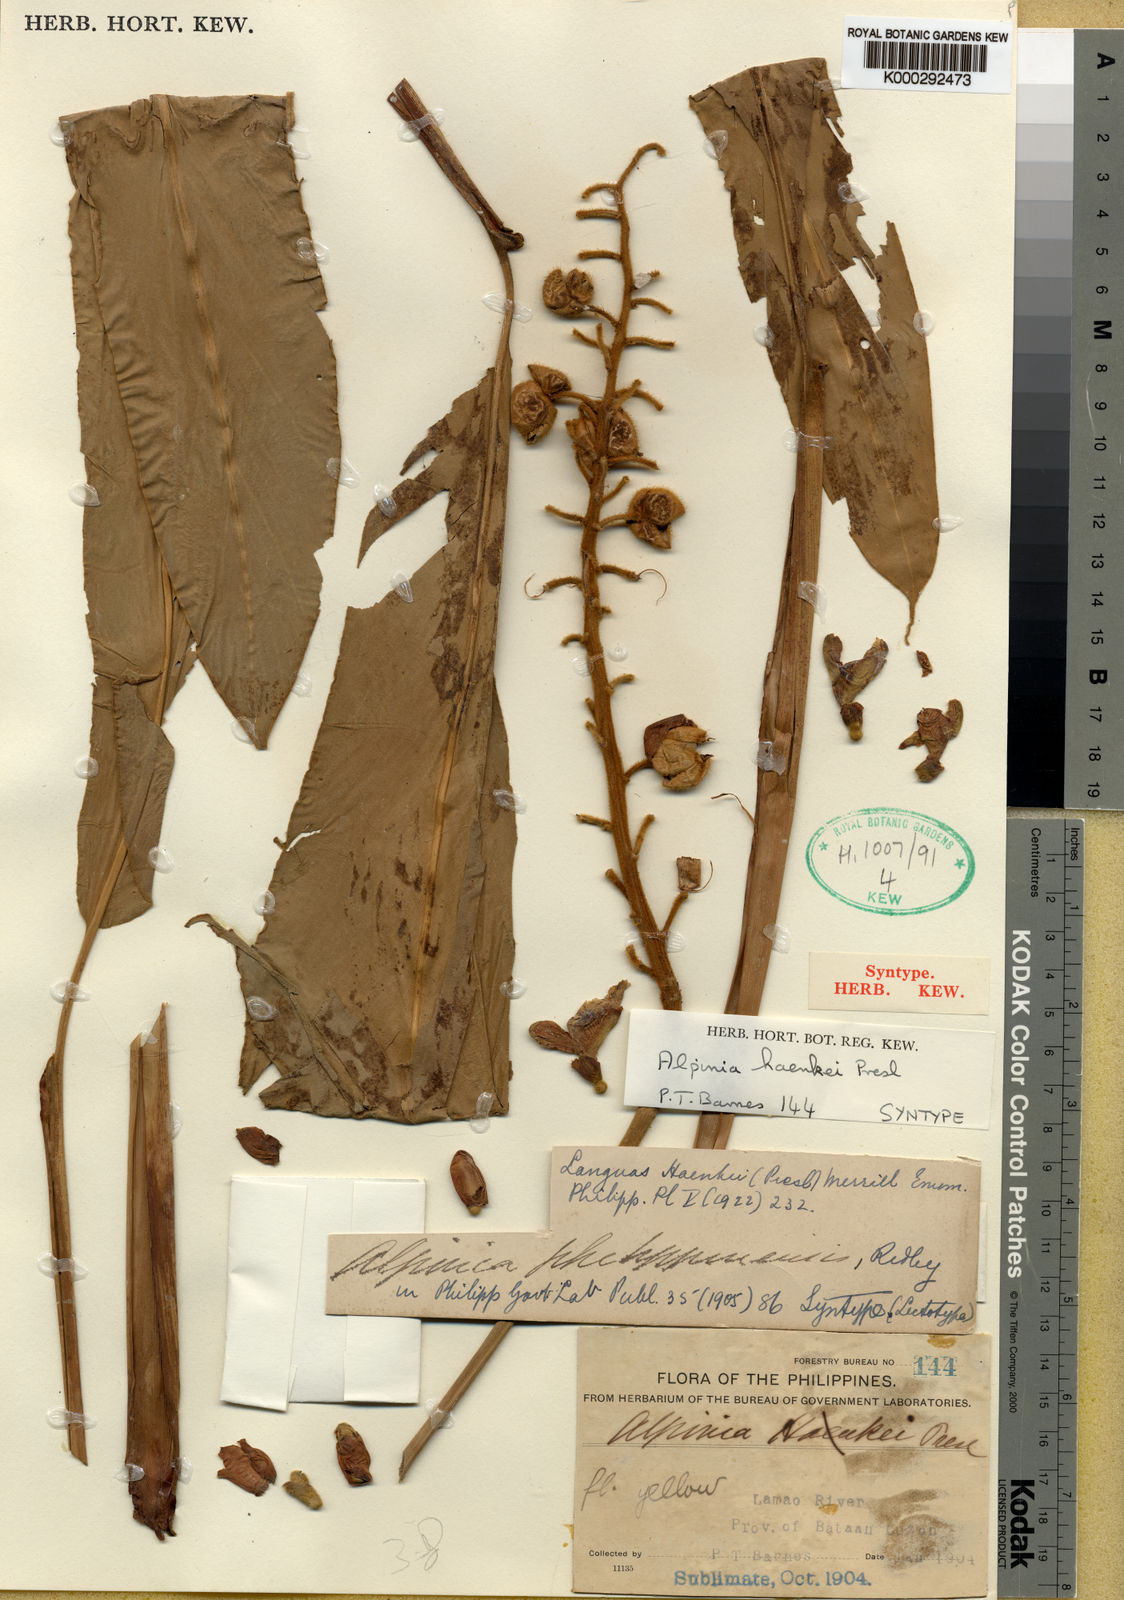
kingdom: Plantae
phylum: Tracheophyta
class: Liliopsida
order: Zingiberales
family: Zingiberaceae
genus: Alpinia
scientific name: Alpinia haenkei
